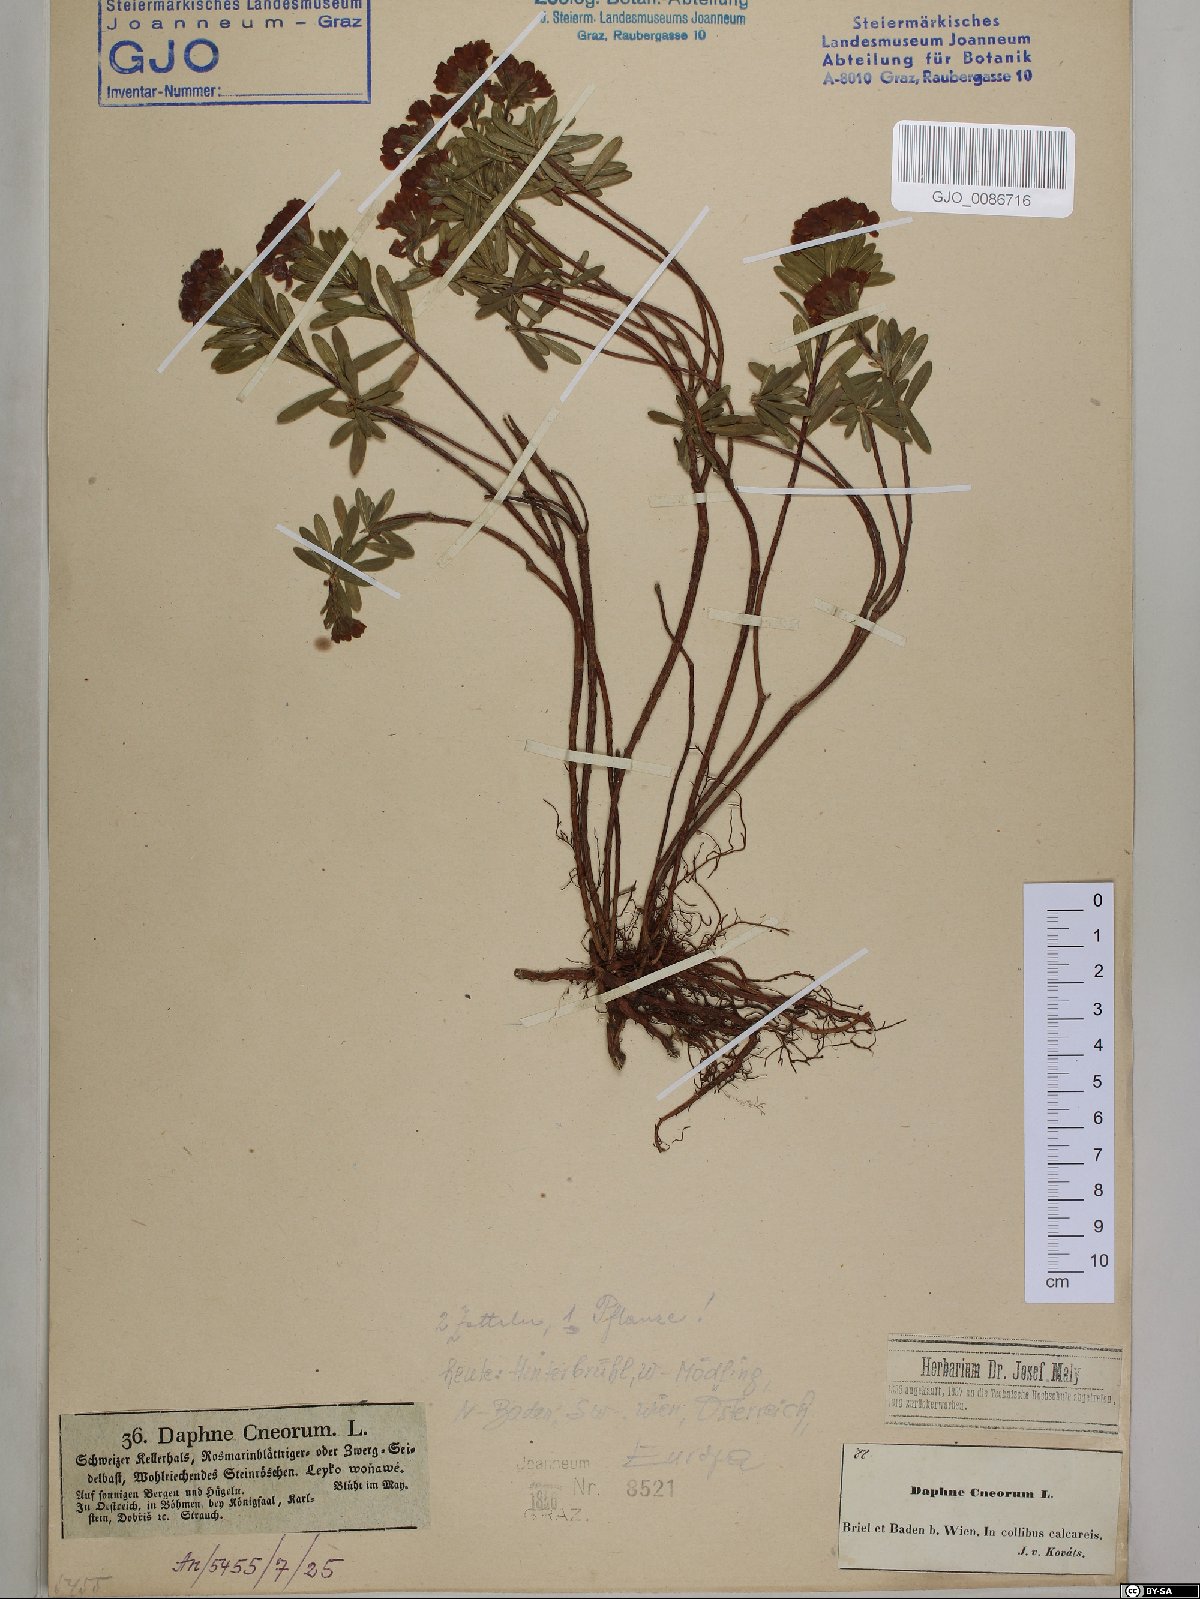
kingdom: Plantae
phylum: Tracheophyta
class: Magnoliopsida
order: Malvales
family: Thymelaeaceae
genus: Daphne
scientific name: Daphne cneorum
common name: Garland-flower
